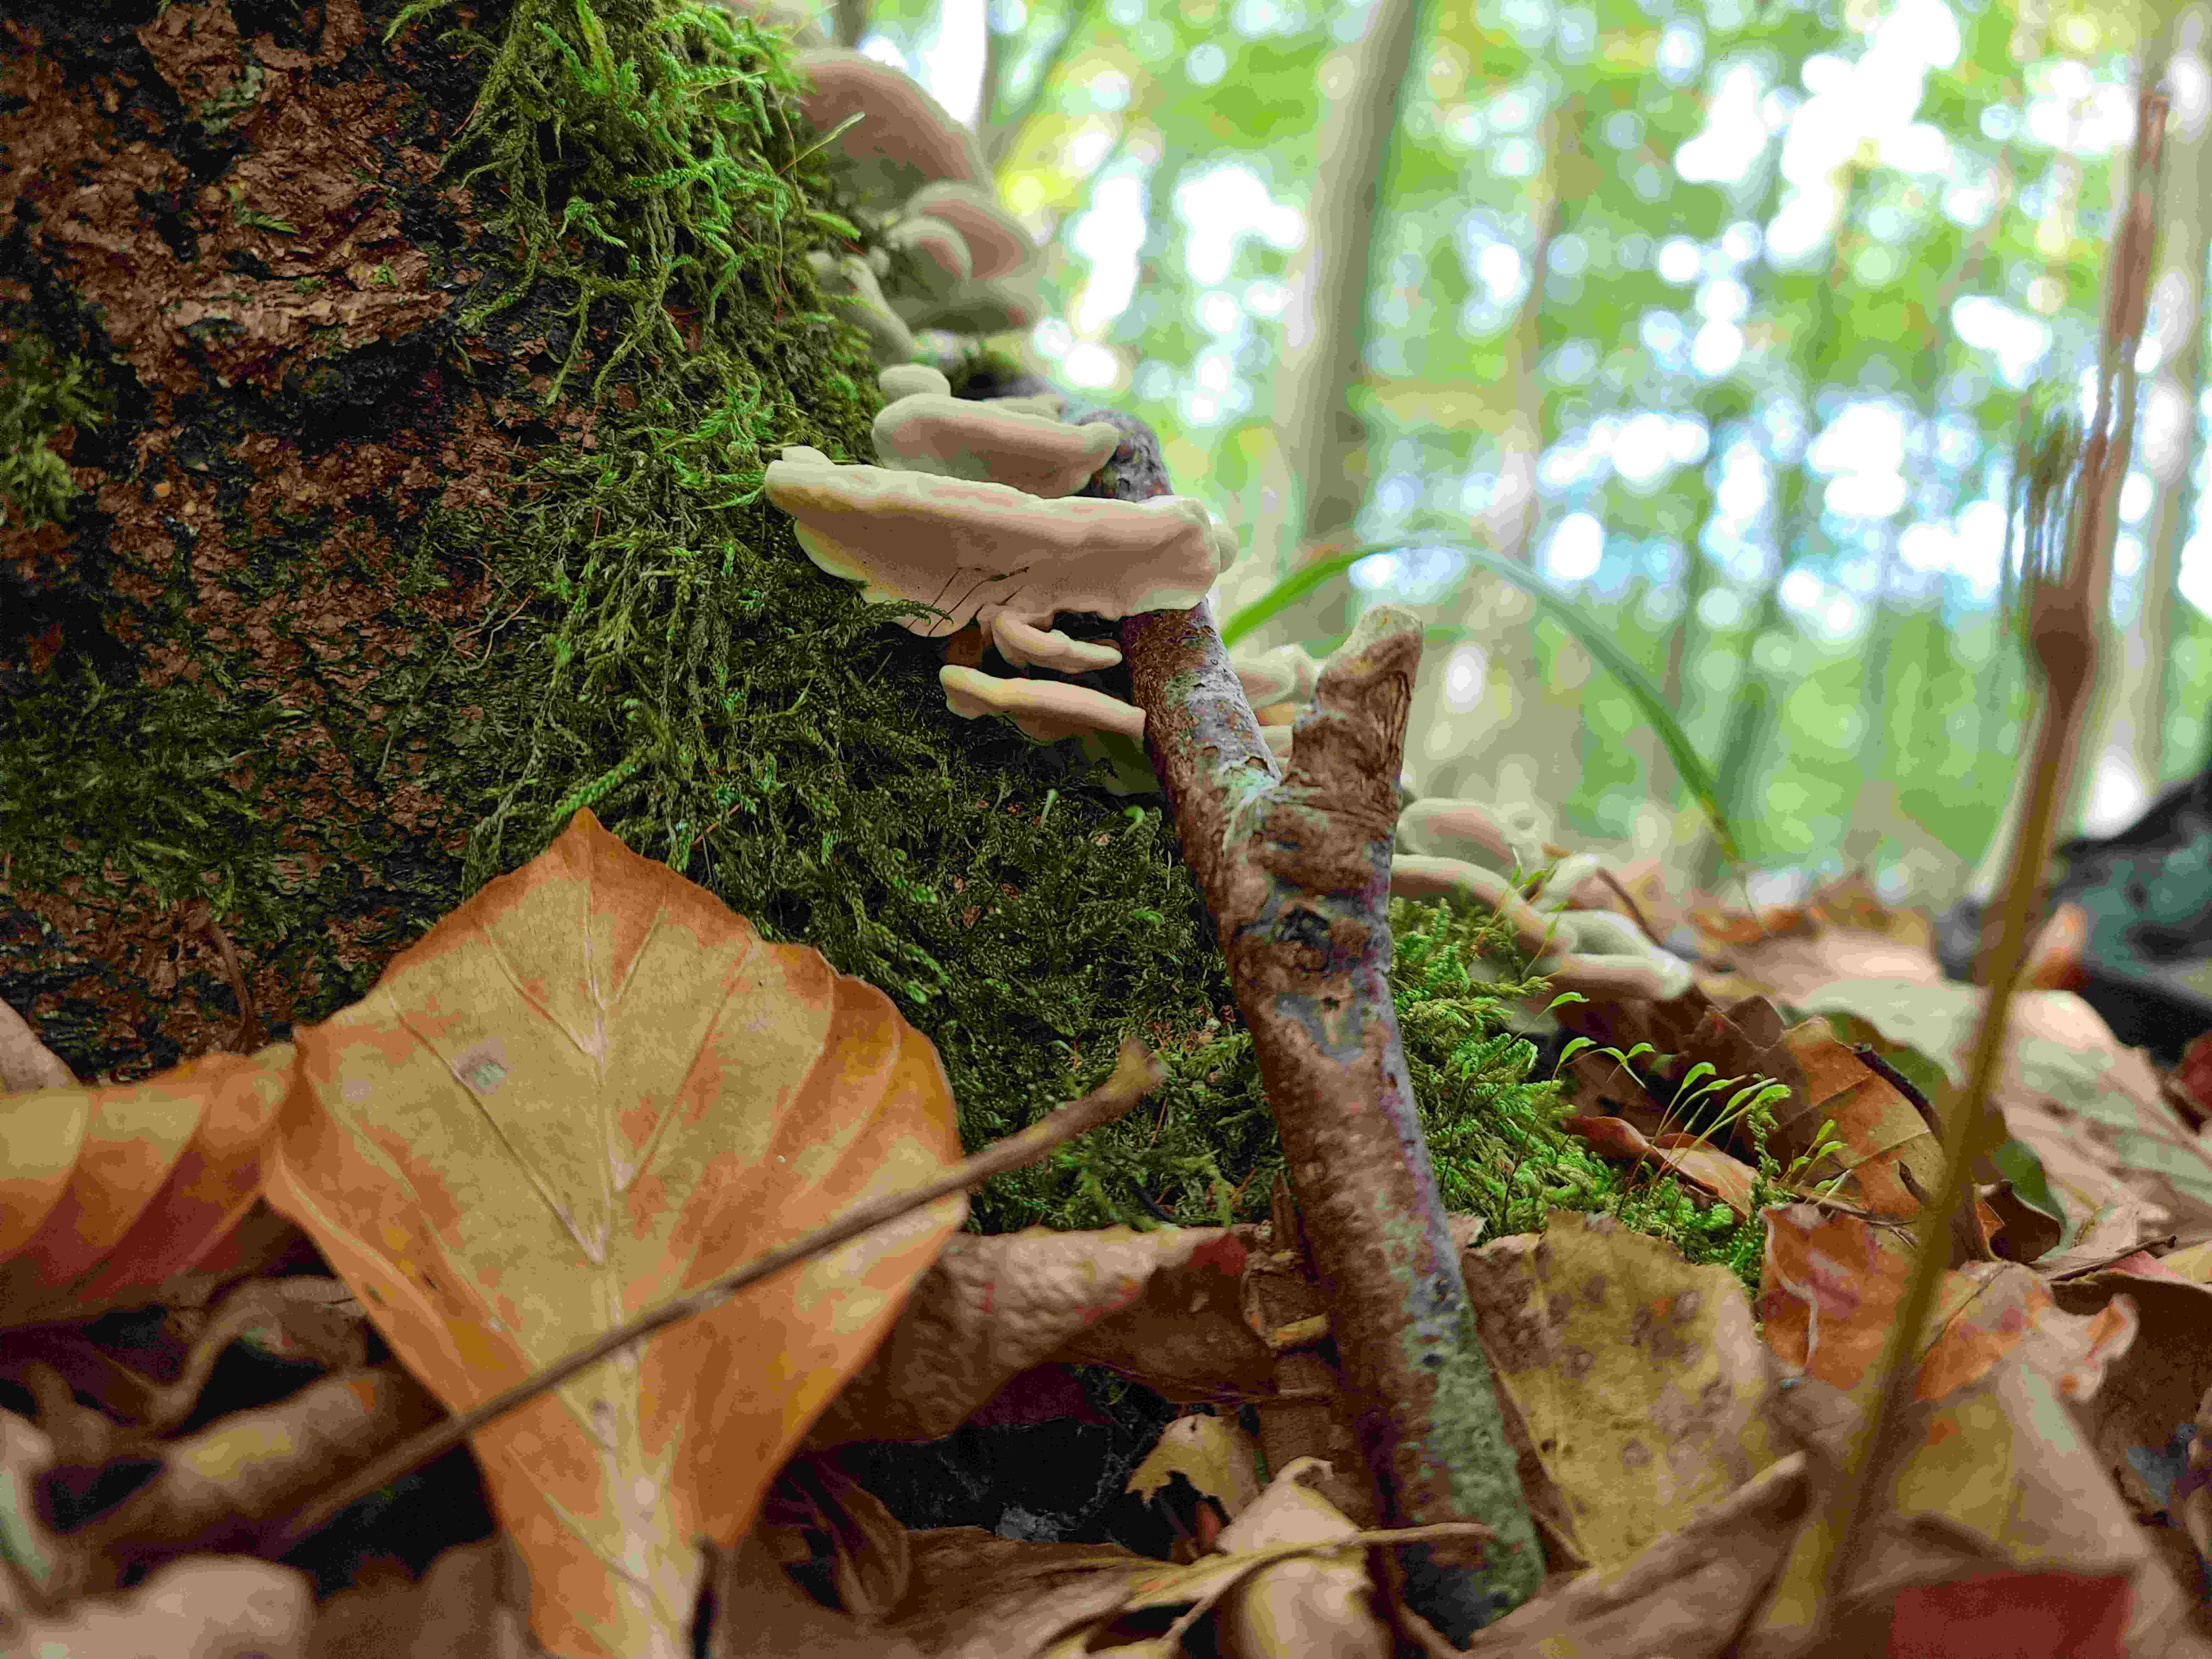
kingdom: Fungi
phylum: Basidiomycota
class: Agaricomycetes
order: Polyporales
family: Polyporaceae
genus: Trametes
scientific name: Trametes versicolor
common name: broget læderporesvamp
